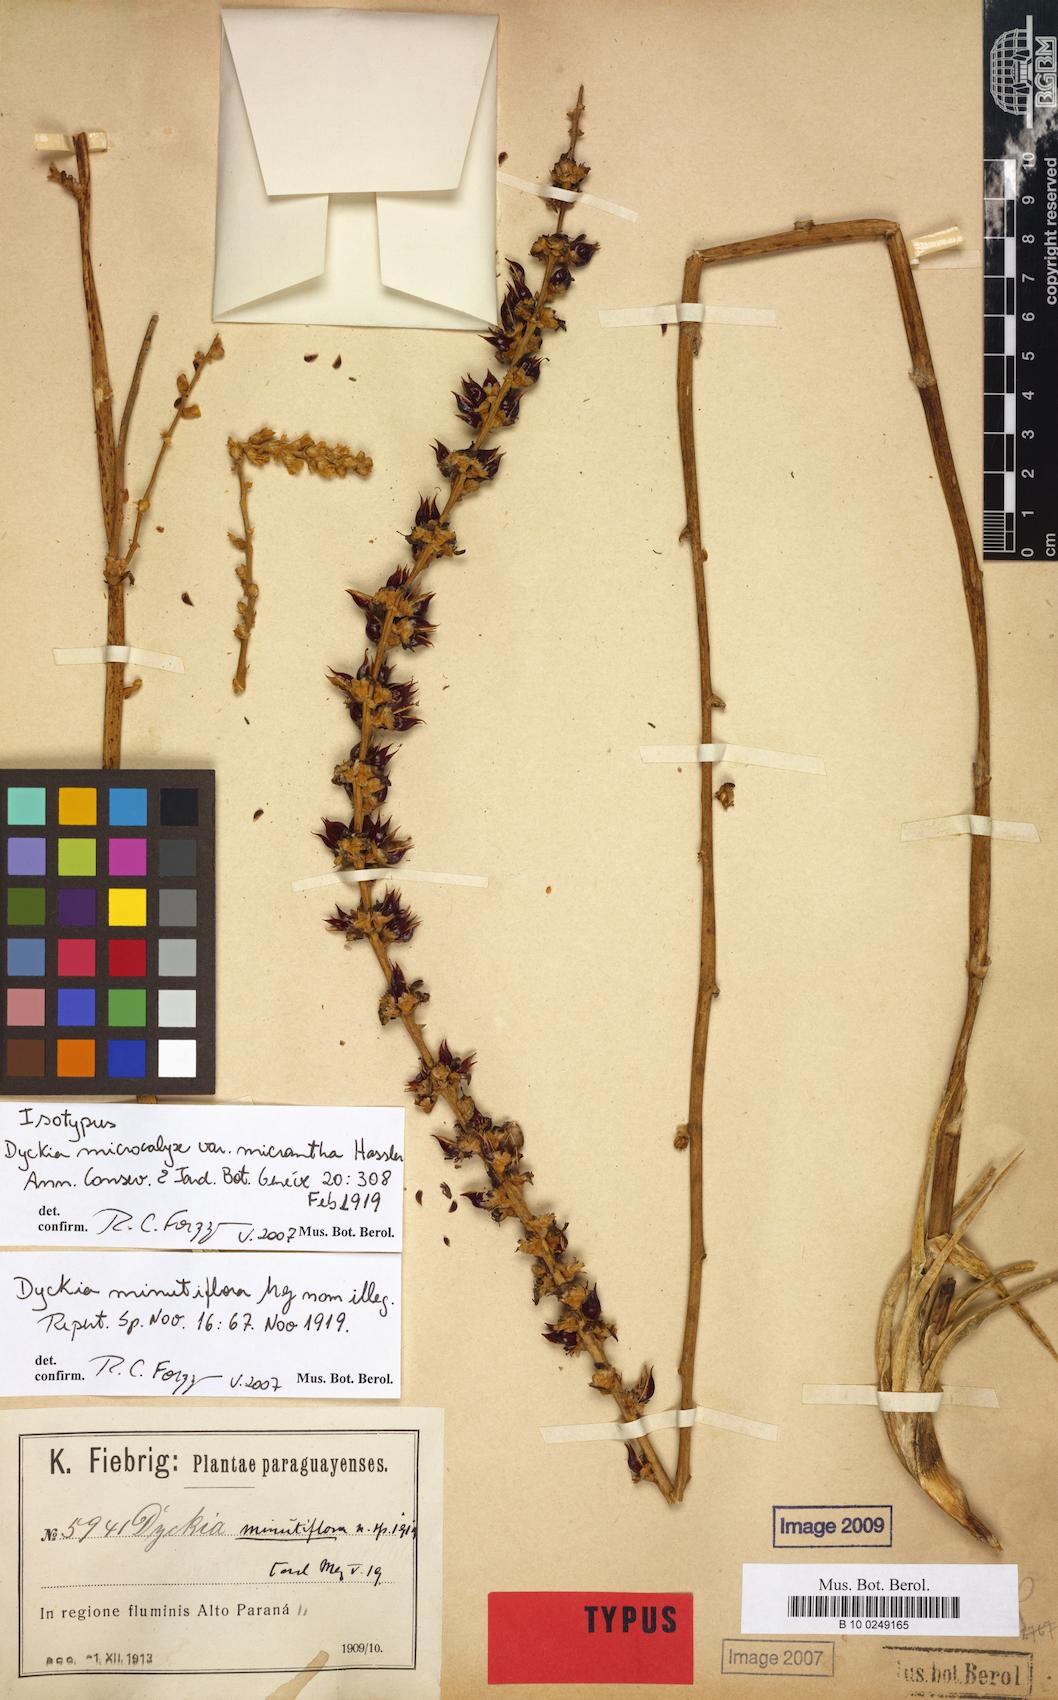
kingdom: Plantae
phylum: Tracheophyta
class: Liliopsida
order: Poales
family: Bromeliaceae
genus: Dyckia
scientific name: Dyckia microcalyx
